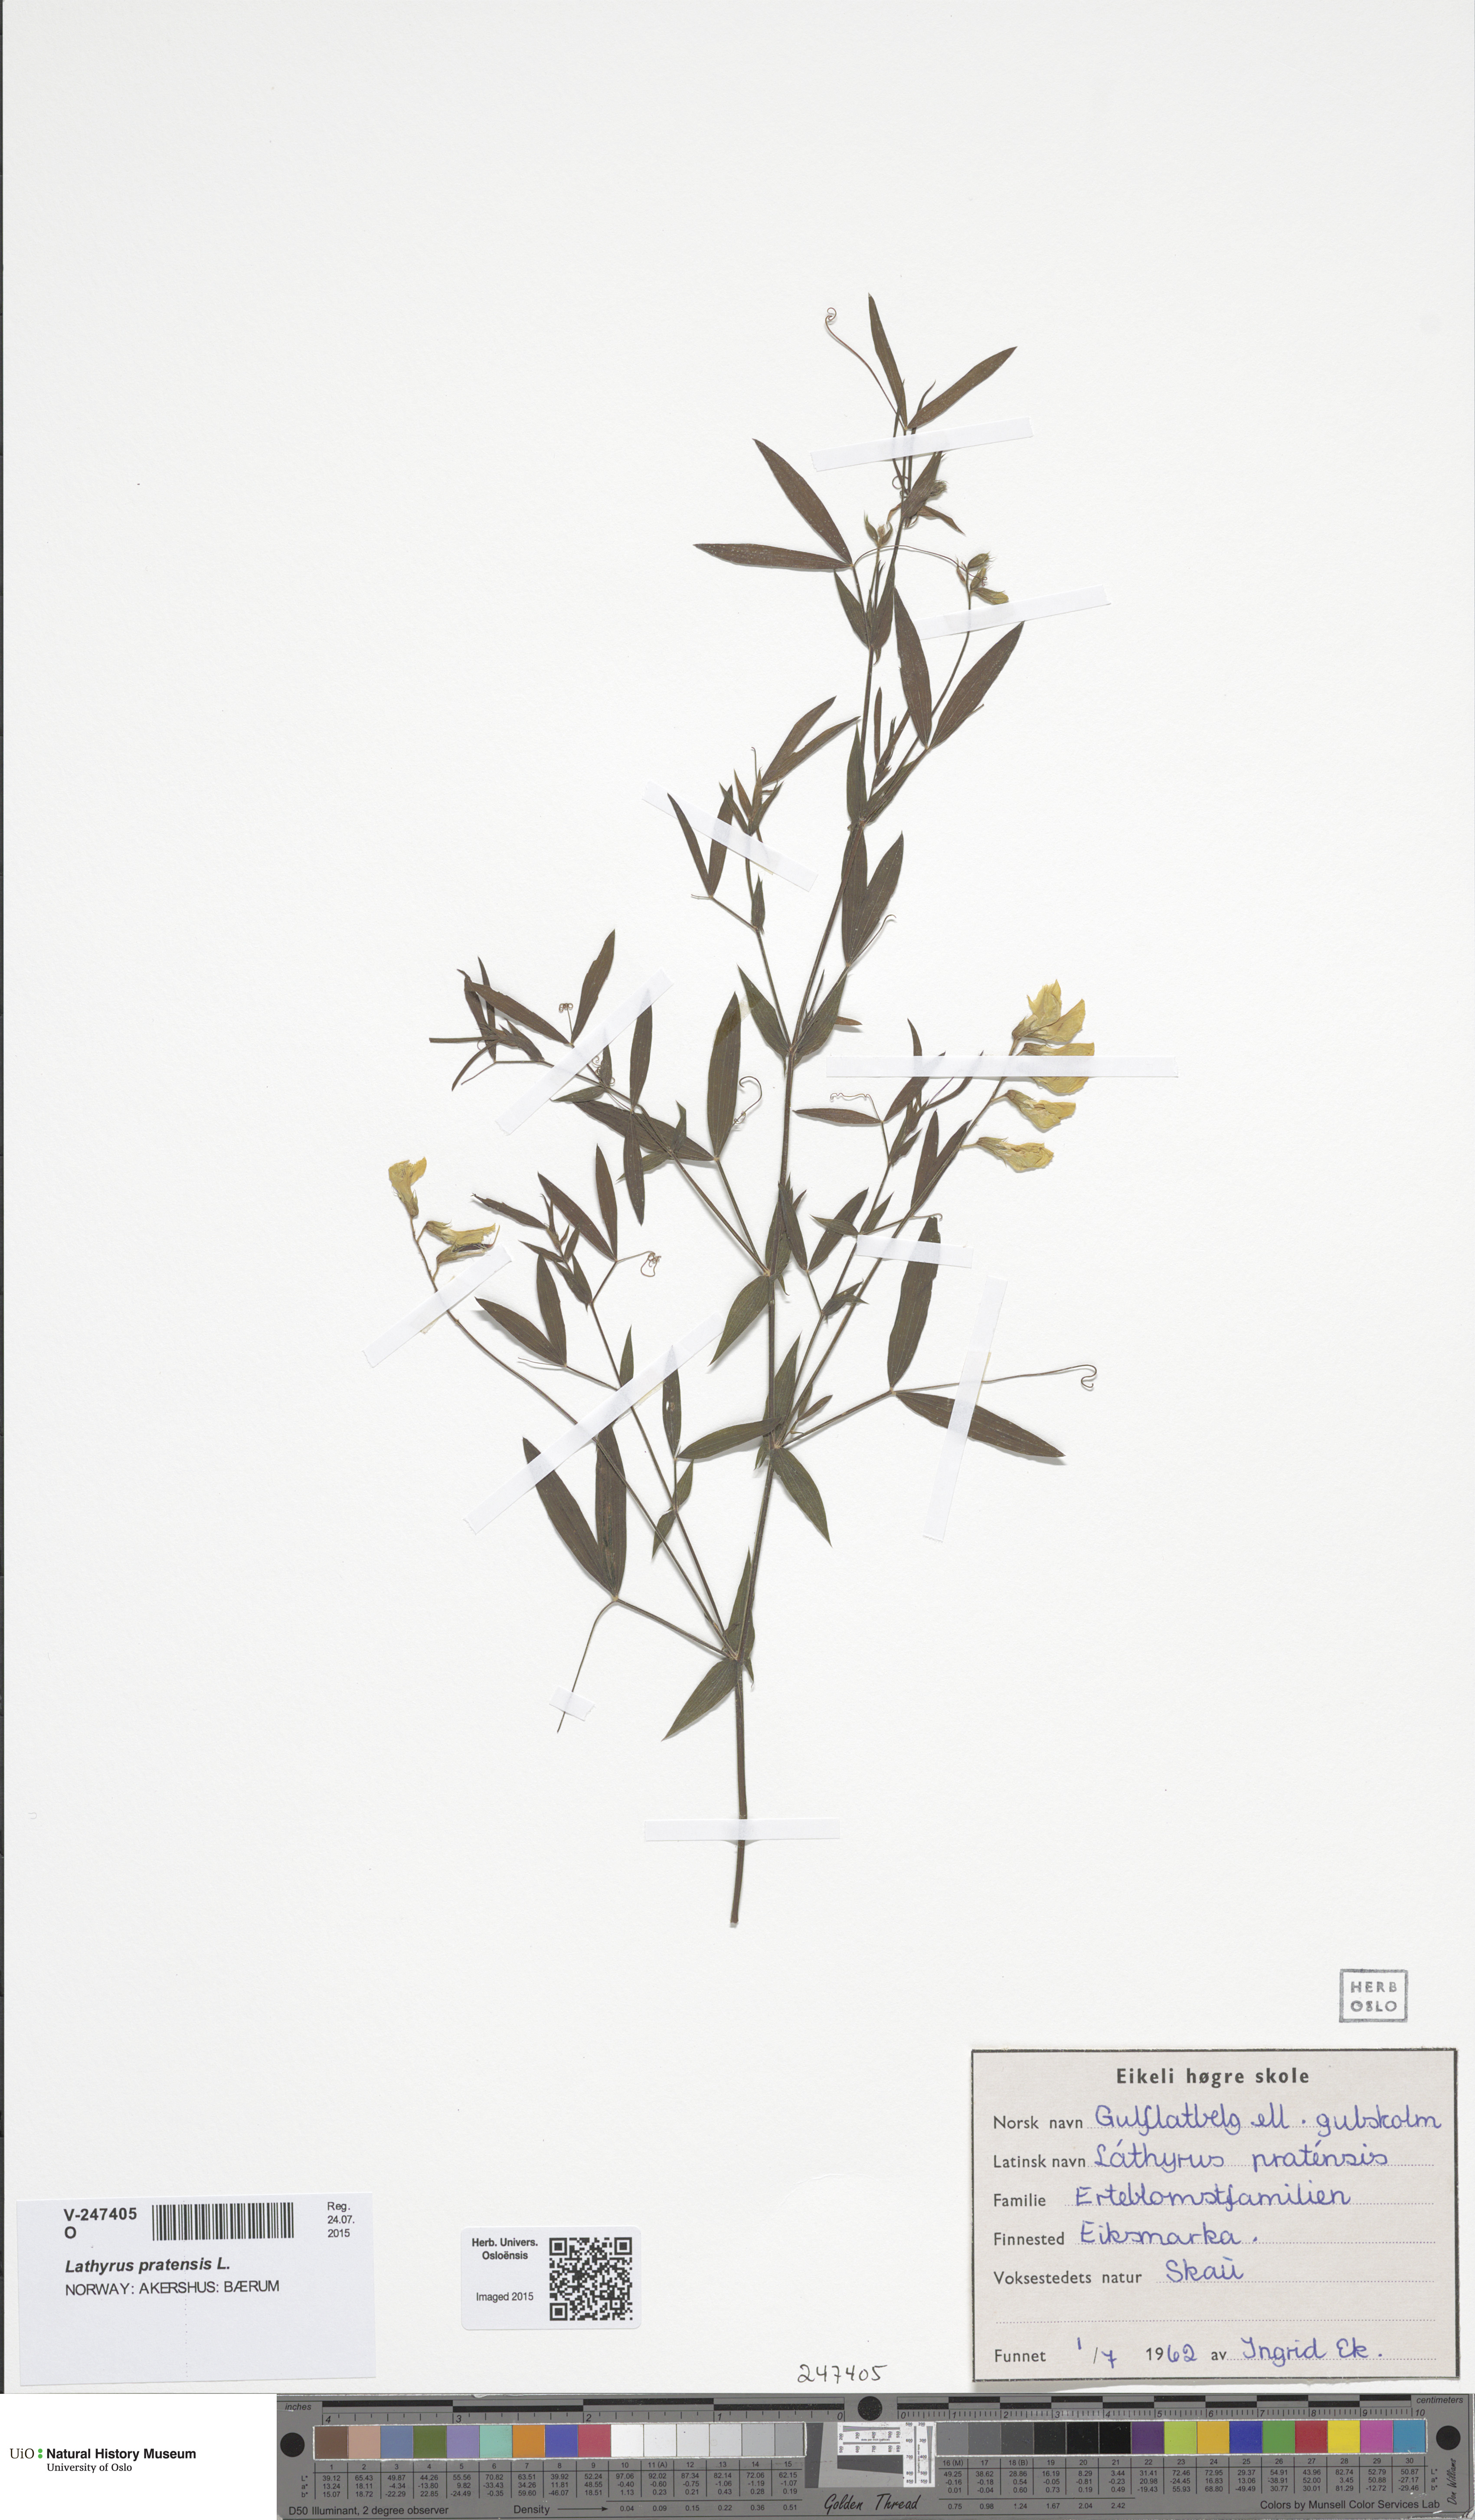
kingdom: Plantae
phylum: Tracheophyta
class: Magnoliopsida
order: Fabales
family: Fabaceae
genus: Lathyrus
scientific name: Lathyrus pratensis
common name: Meadow vetchling
